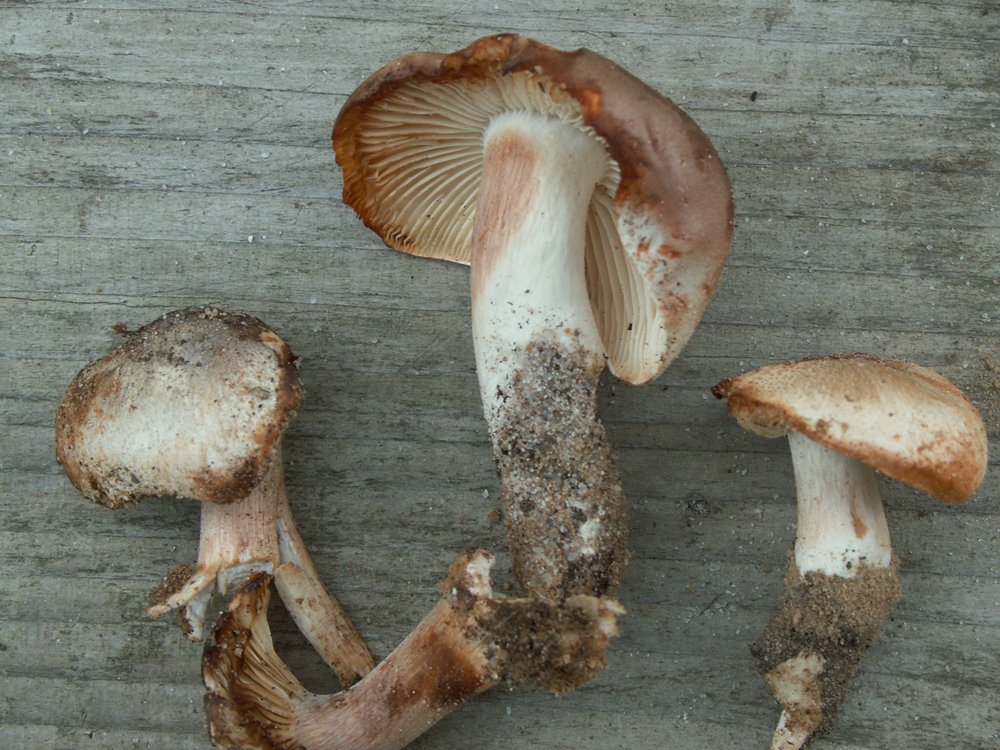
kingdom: Fungi
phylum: Basidiomycota
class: Agaricomycetes
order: Agaricales
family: Tricholomataceae
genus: Tricholoma
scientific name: Tricholoma saponaceum
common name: Soapy trich
